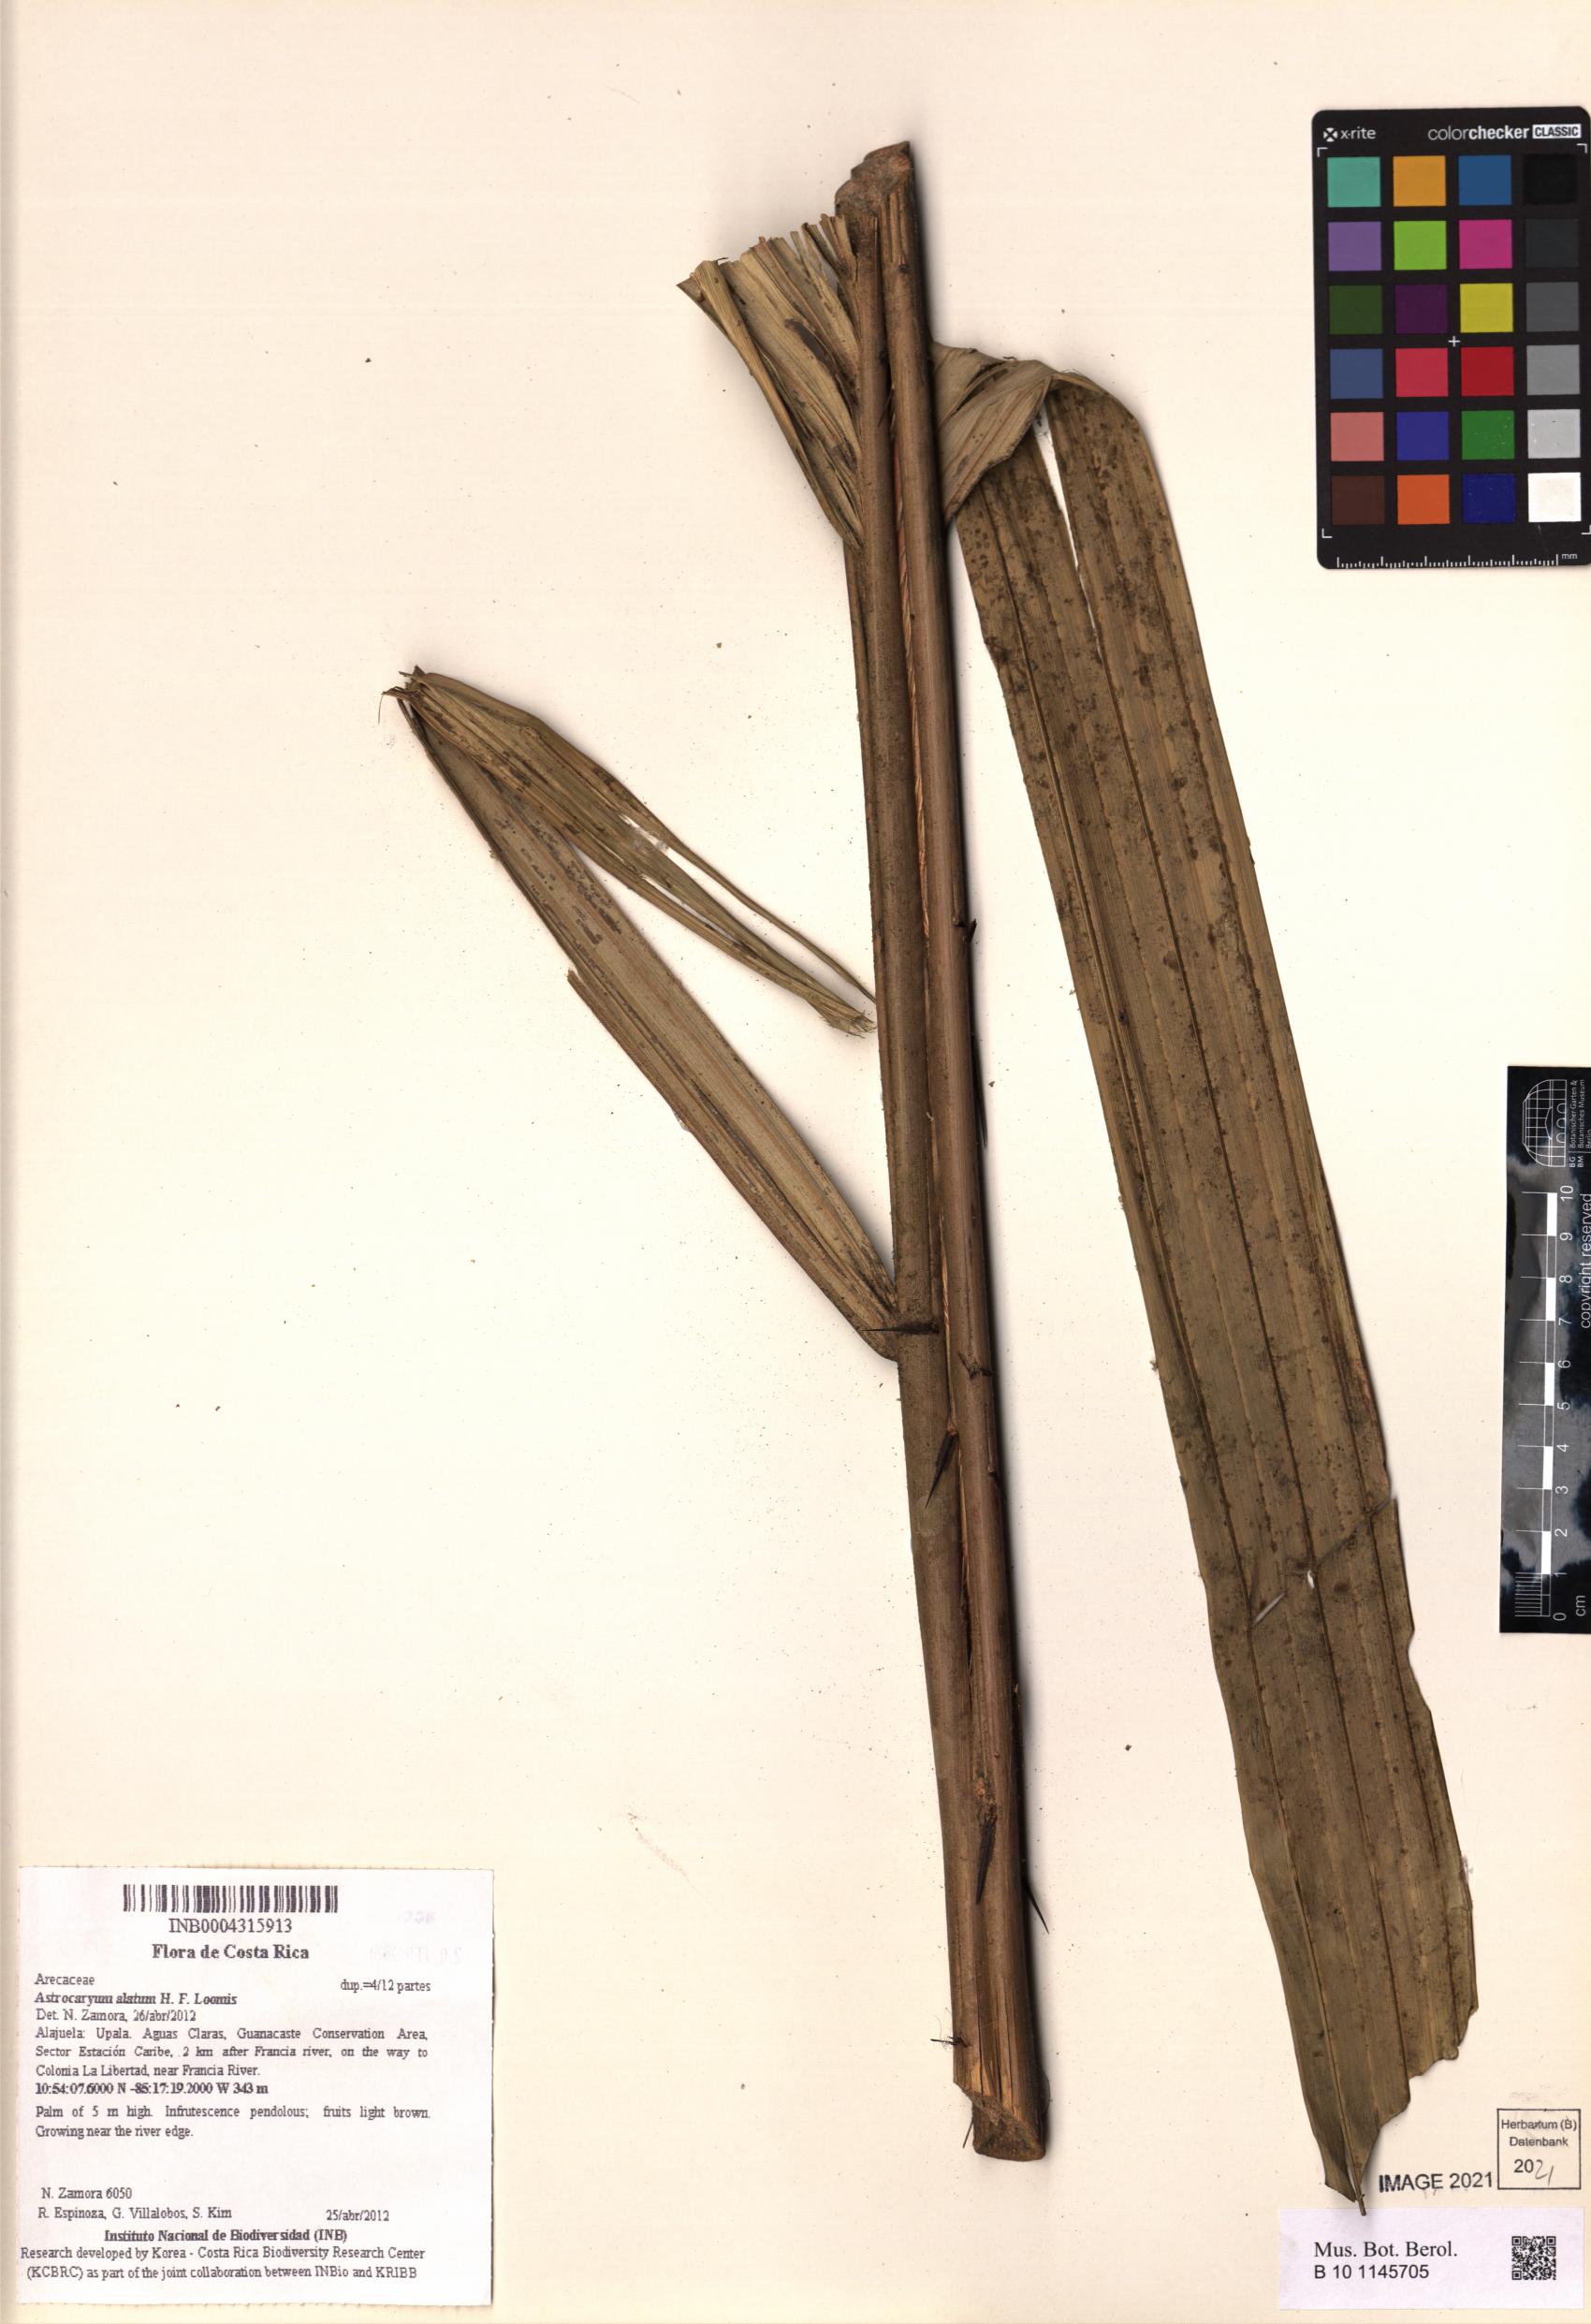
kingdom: Plantae
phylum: Tracheophyta
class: Liliopsida
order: Arecales
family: Arecaceae
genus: Astrocaryum
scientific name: Astrocaryum alatum
